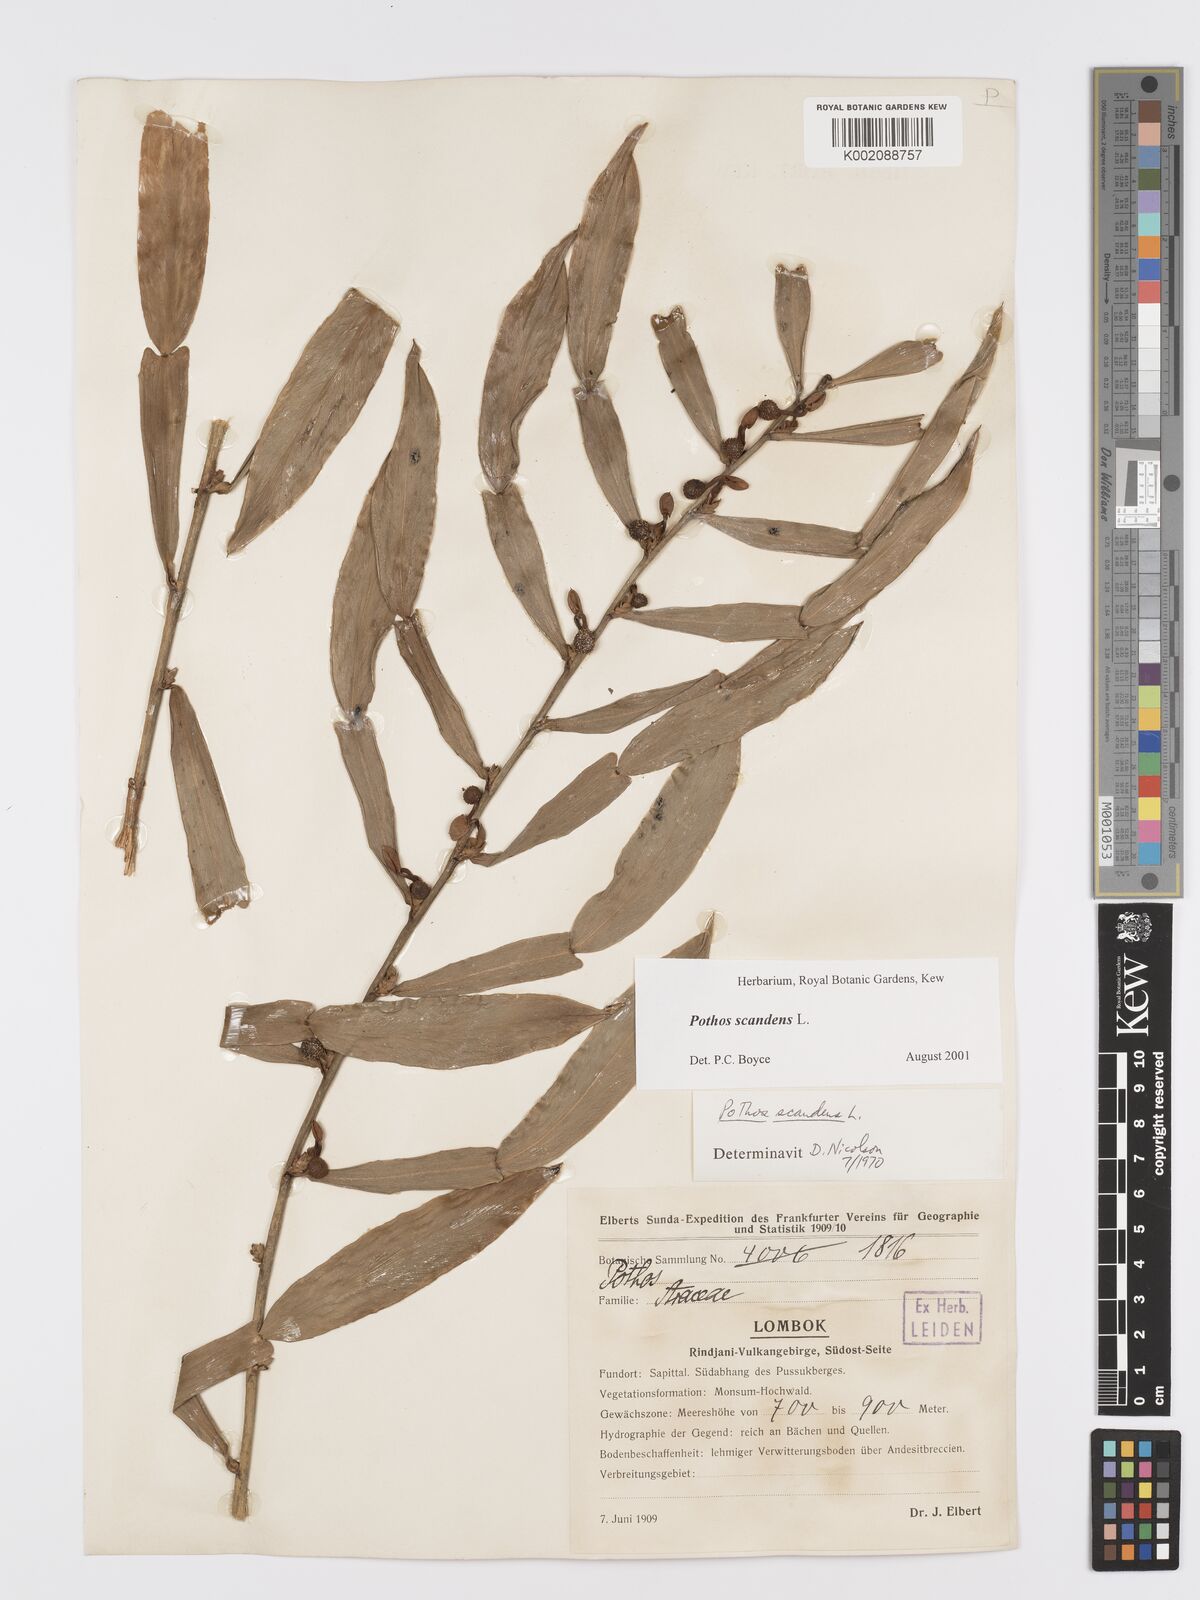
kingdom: Plantae
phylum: Tracheophyta
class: Liliopsida
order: Alismatales
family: Araceae
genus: Pothos
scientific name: Pothos scandens
